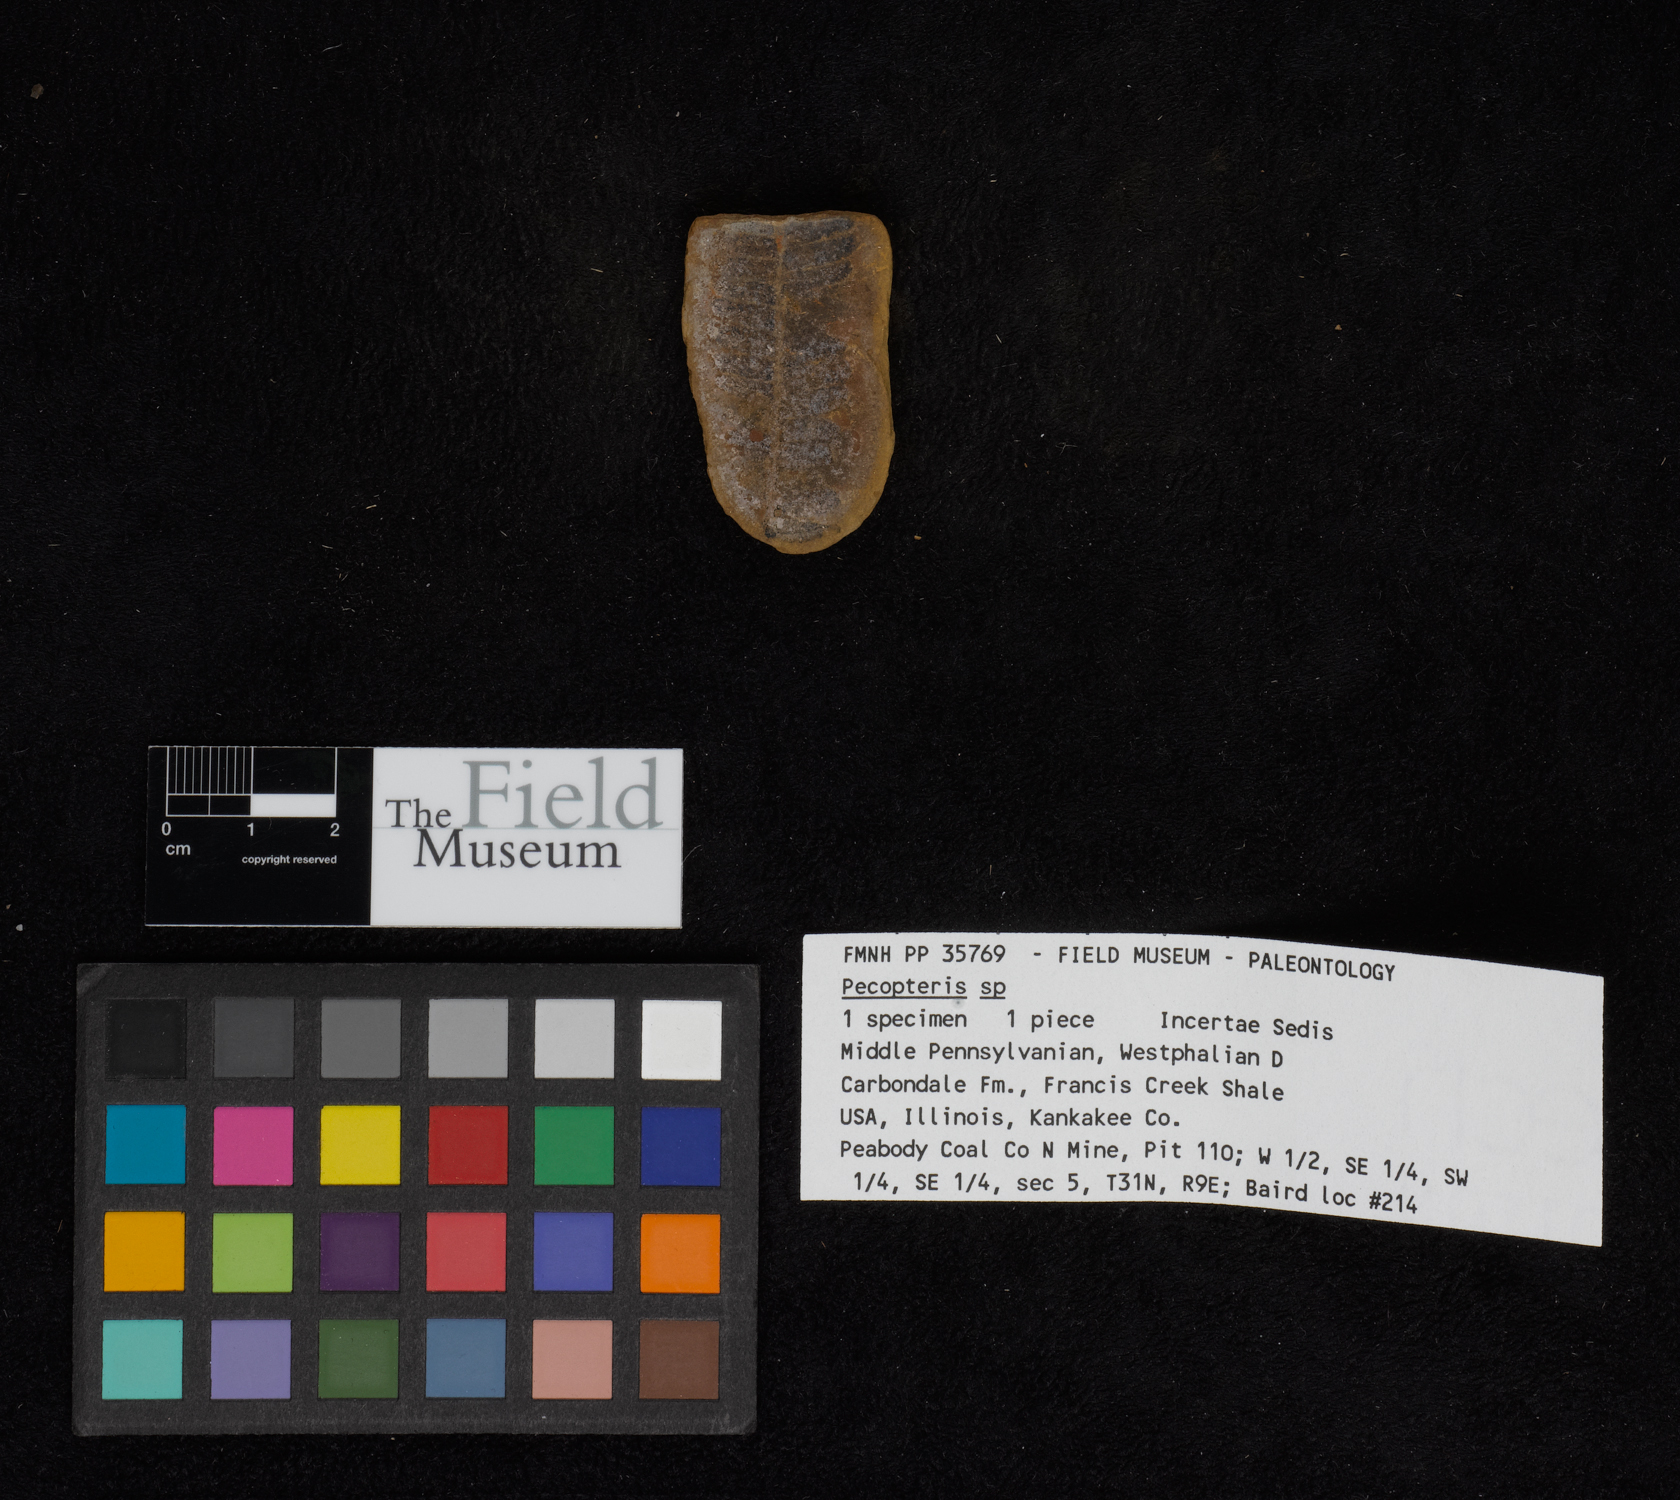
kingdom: Plantae
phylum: Tracheophyta
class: Polypodiopsida
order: Marattiales
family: Asterothecaceae
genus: Pecopteris
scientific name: Pecopteris
